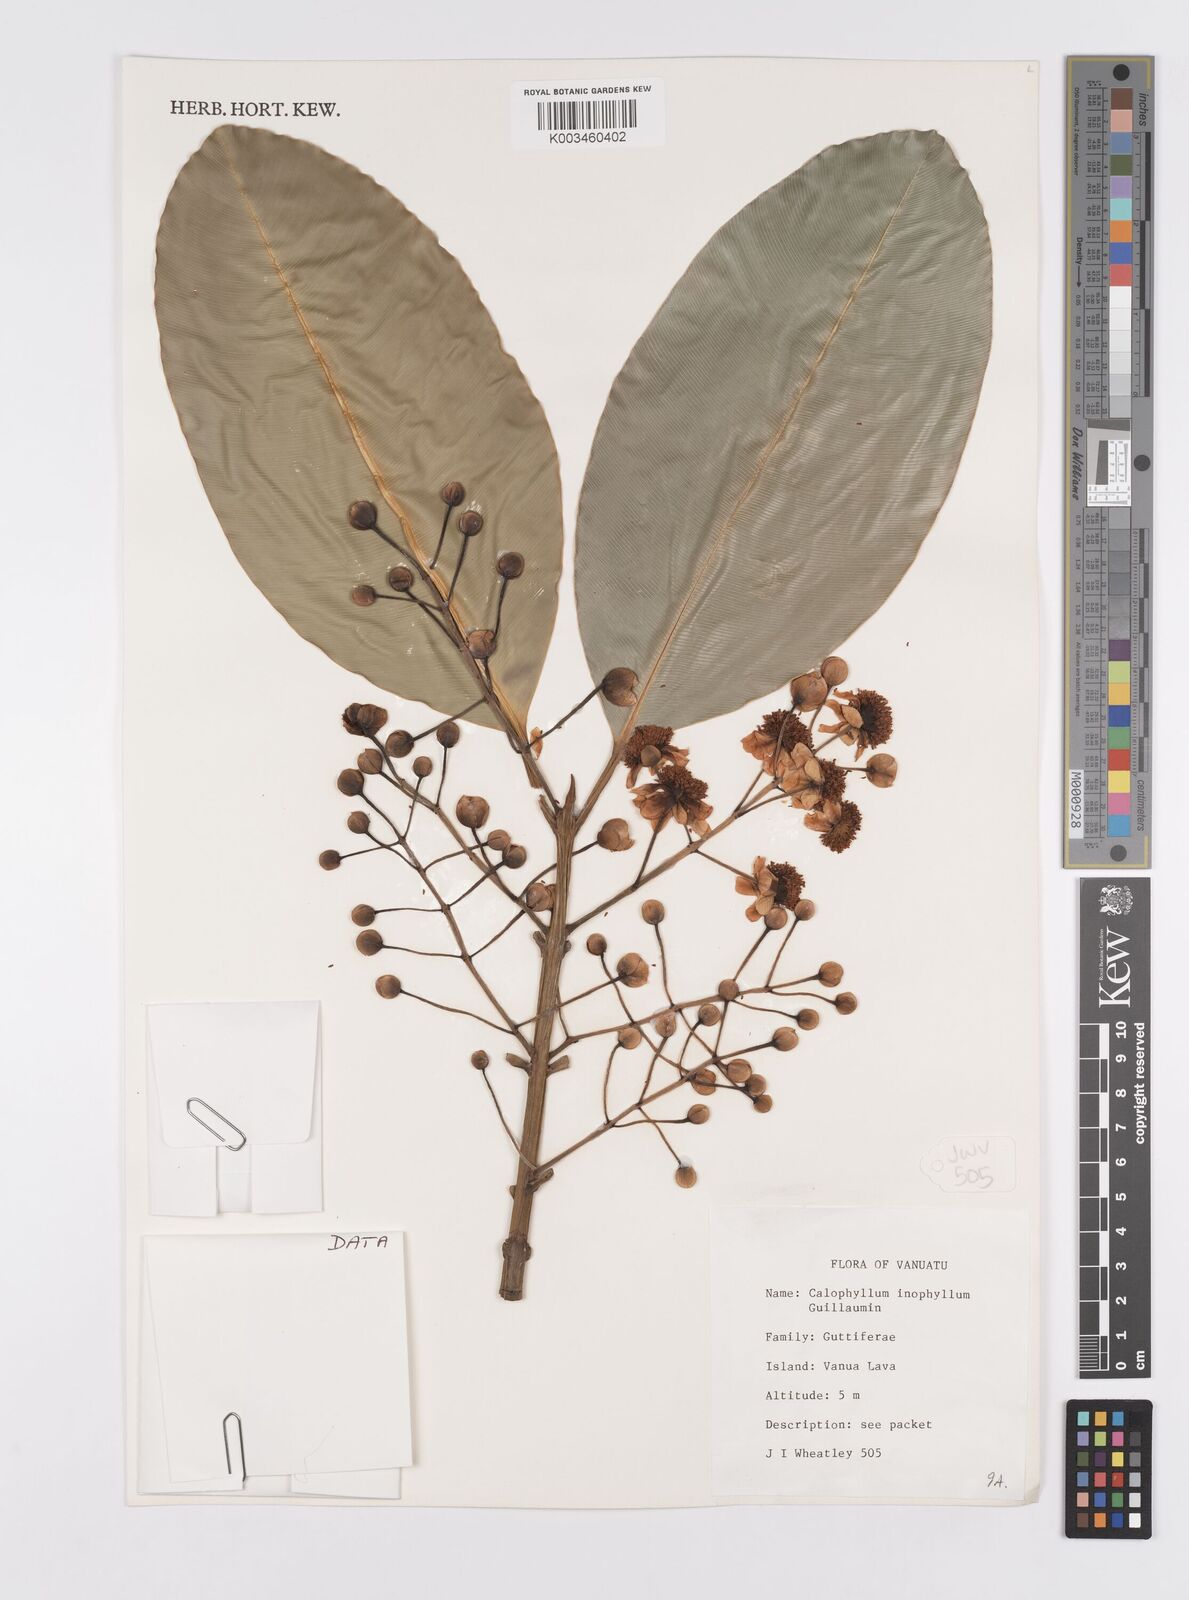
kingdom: Plantae
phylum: Tracheophyta
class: Magnoliopsida
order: Malpighiales
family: Calophyllaceae
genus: Calophyllum
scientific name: Calophyllum inophyllum
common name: Alexandrian laurel
